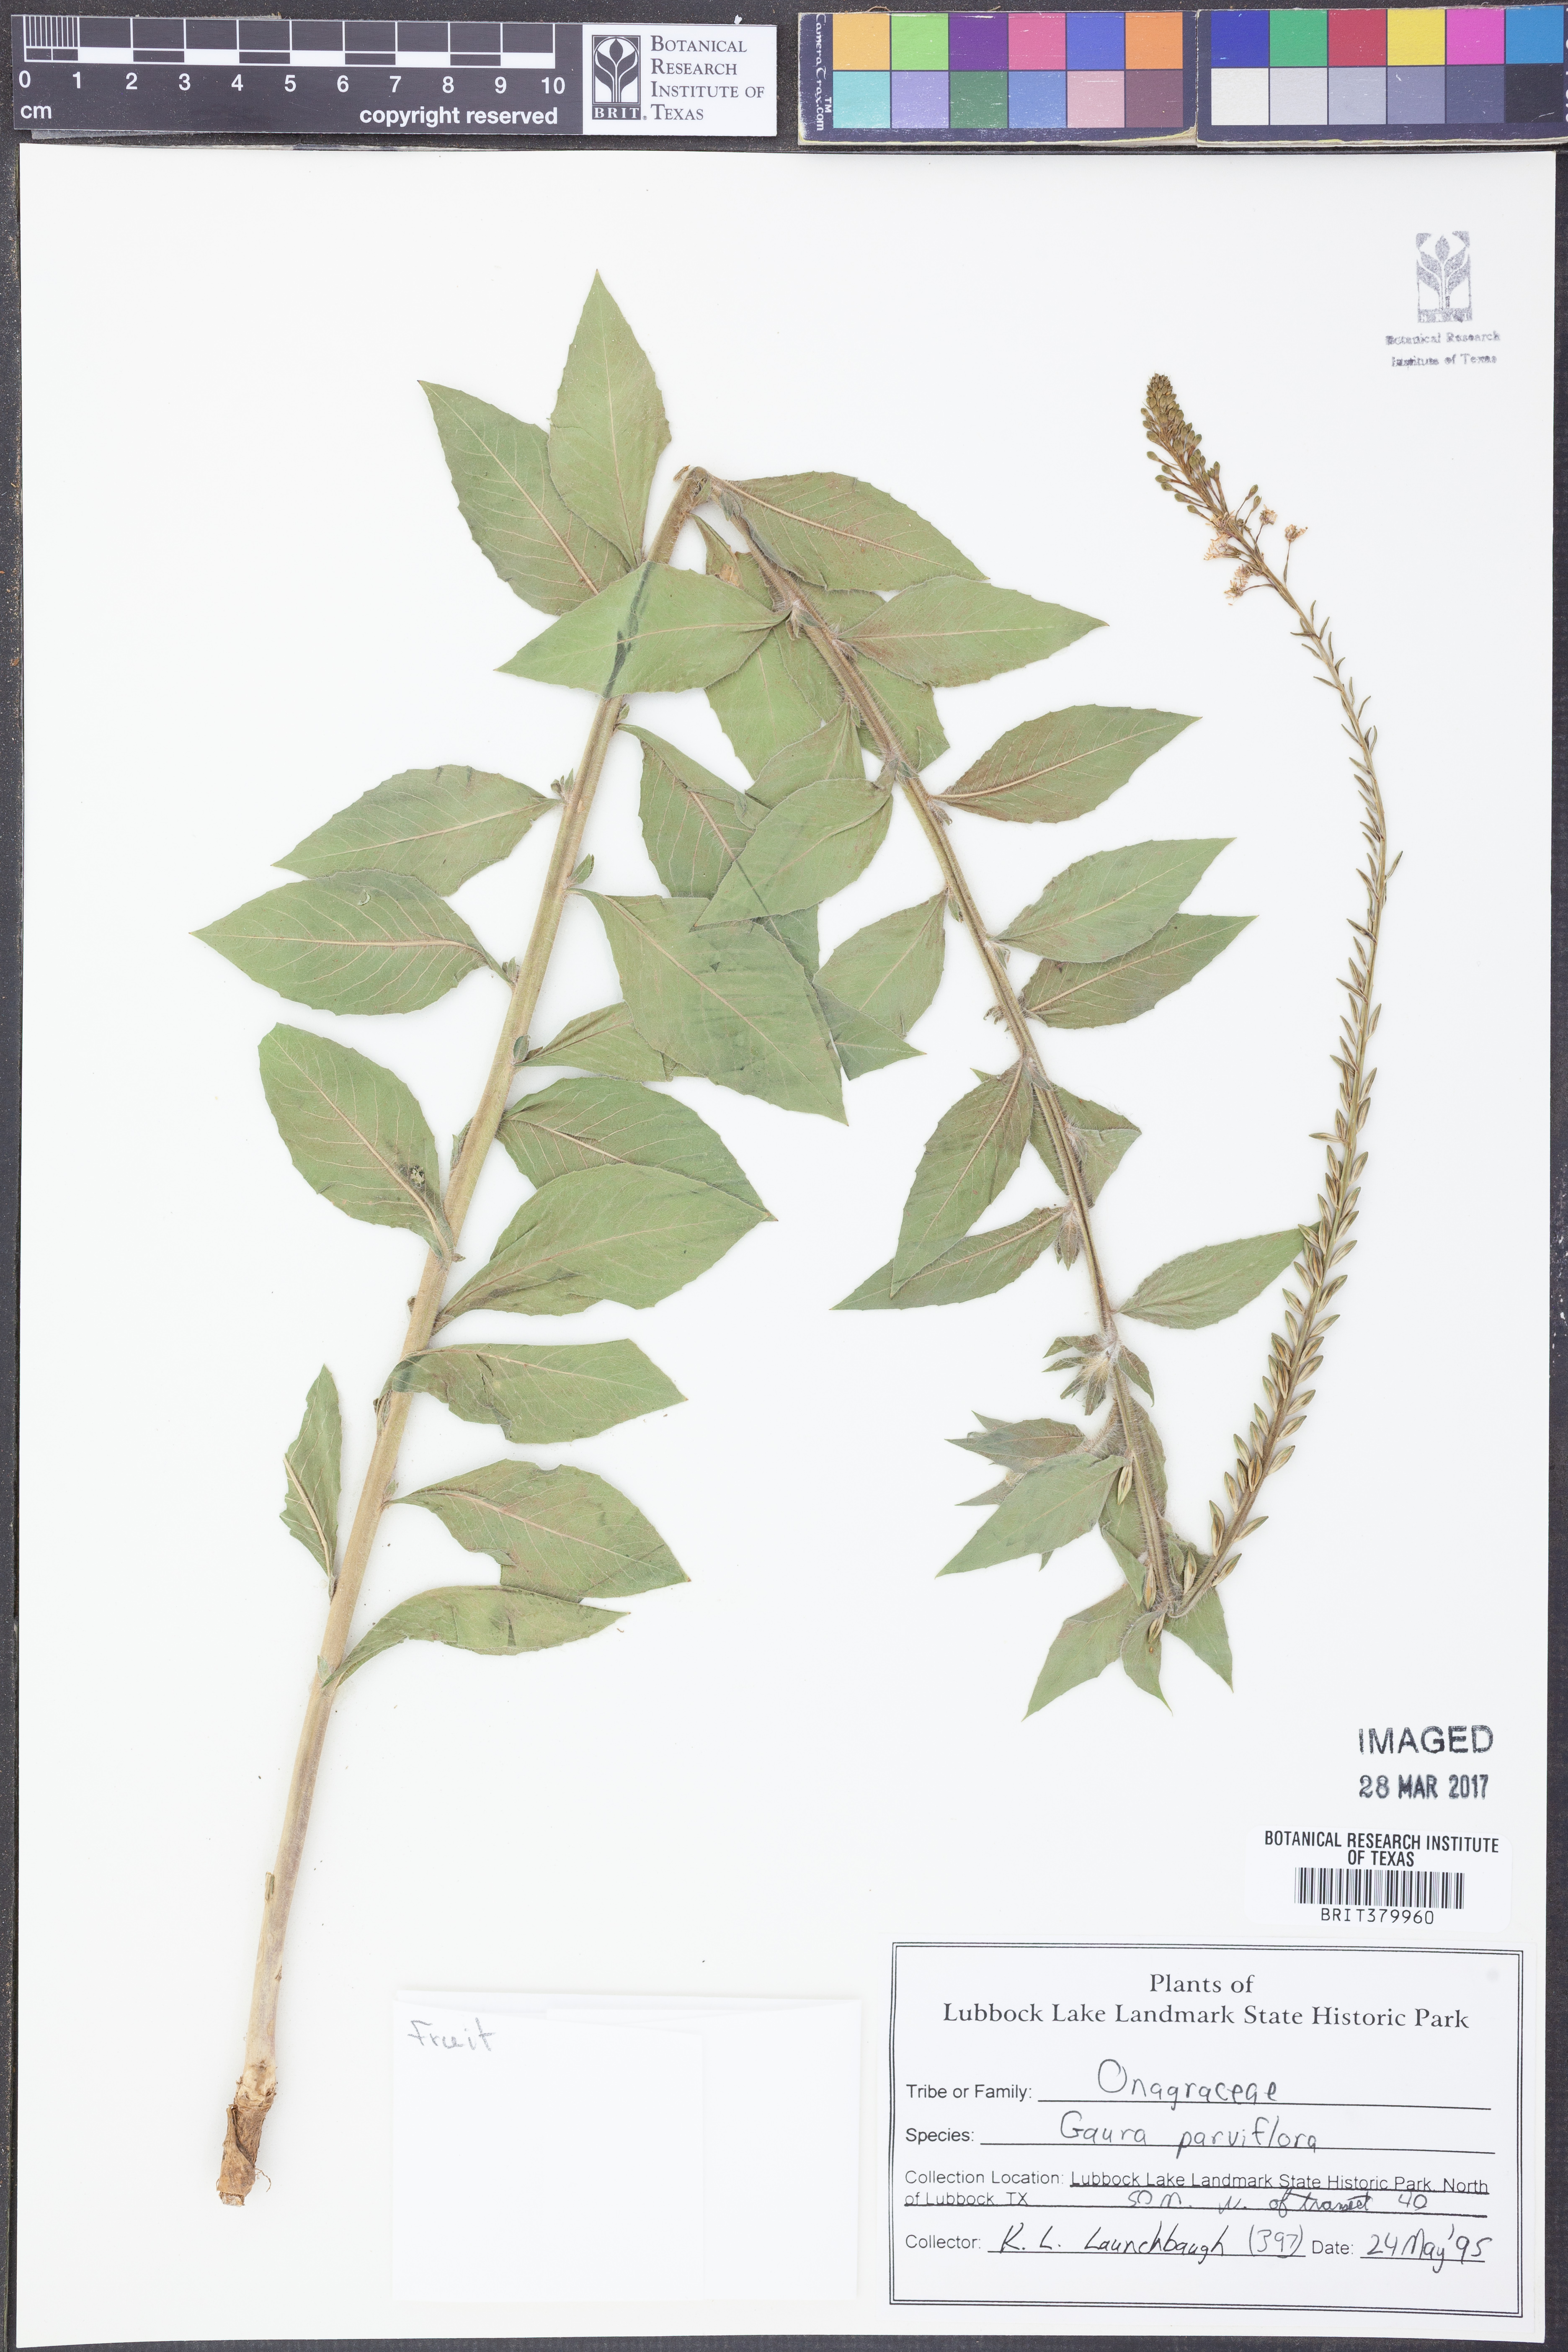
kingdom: Plantae
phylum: Tracheophyta
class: Magnoliopsida
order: Myrtales
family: Onagraceae
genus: Oenothera
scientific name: Oenothera curtiflora
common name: Velvetweed
